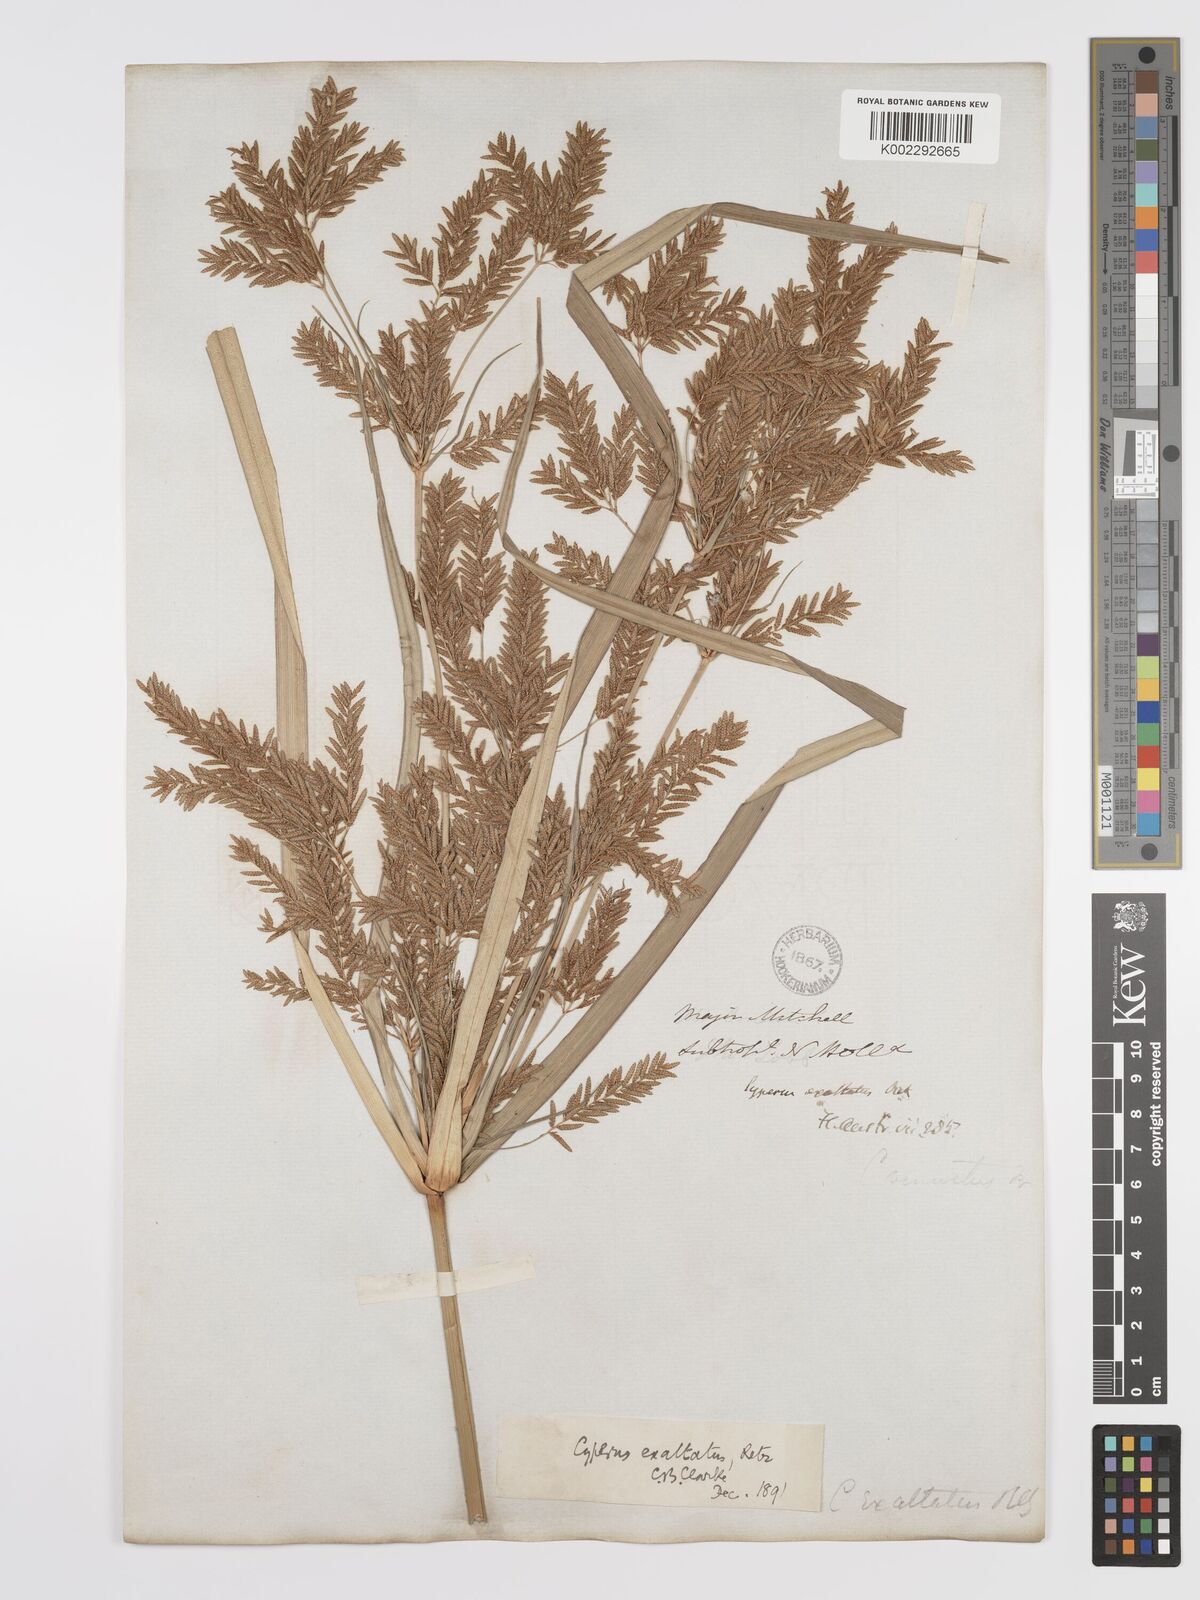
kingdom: Plantae
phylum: Tracheophyta
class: Liliopsida
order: Poales
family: Cyperaceae
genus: Cyperus
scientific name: Cyperus exaltatus
